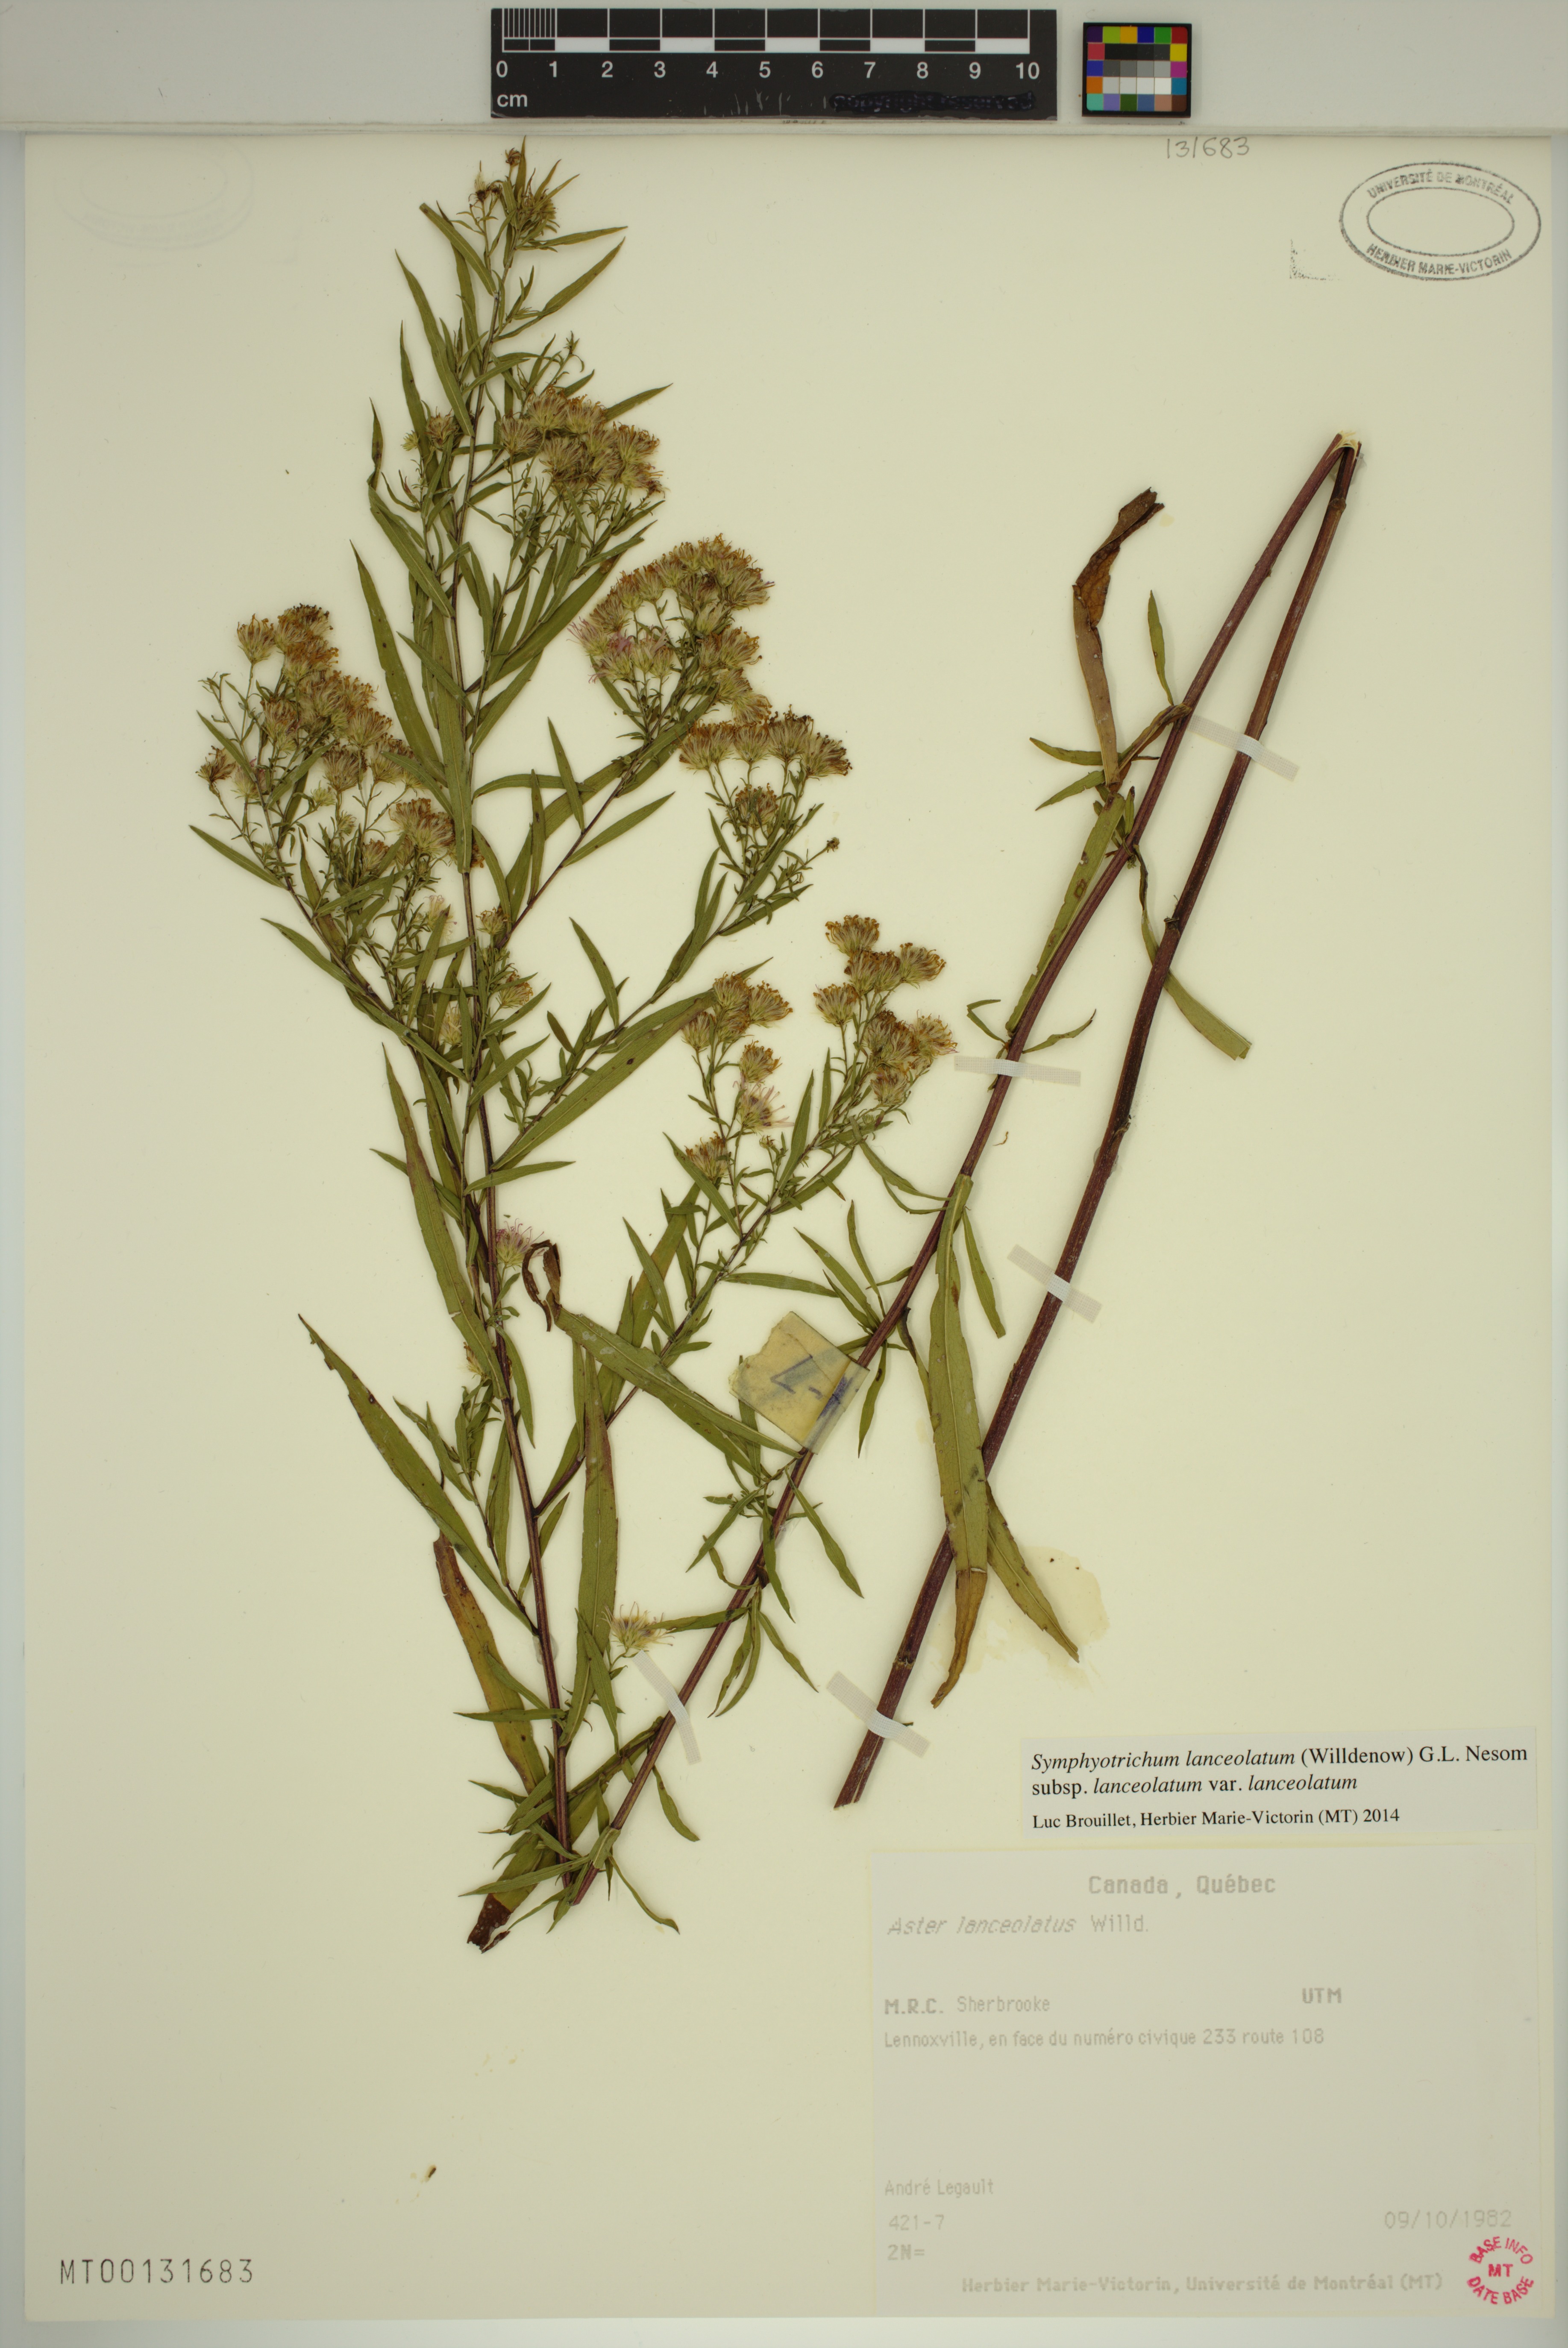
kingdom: Plantae
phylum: Tracheophyta
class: Magnoliopsida
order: Asterales
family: Asteraceae
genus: Symphyotrichum
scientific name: Symphyotrichum lanceolatum
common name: Panicled aster
